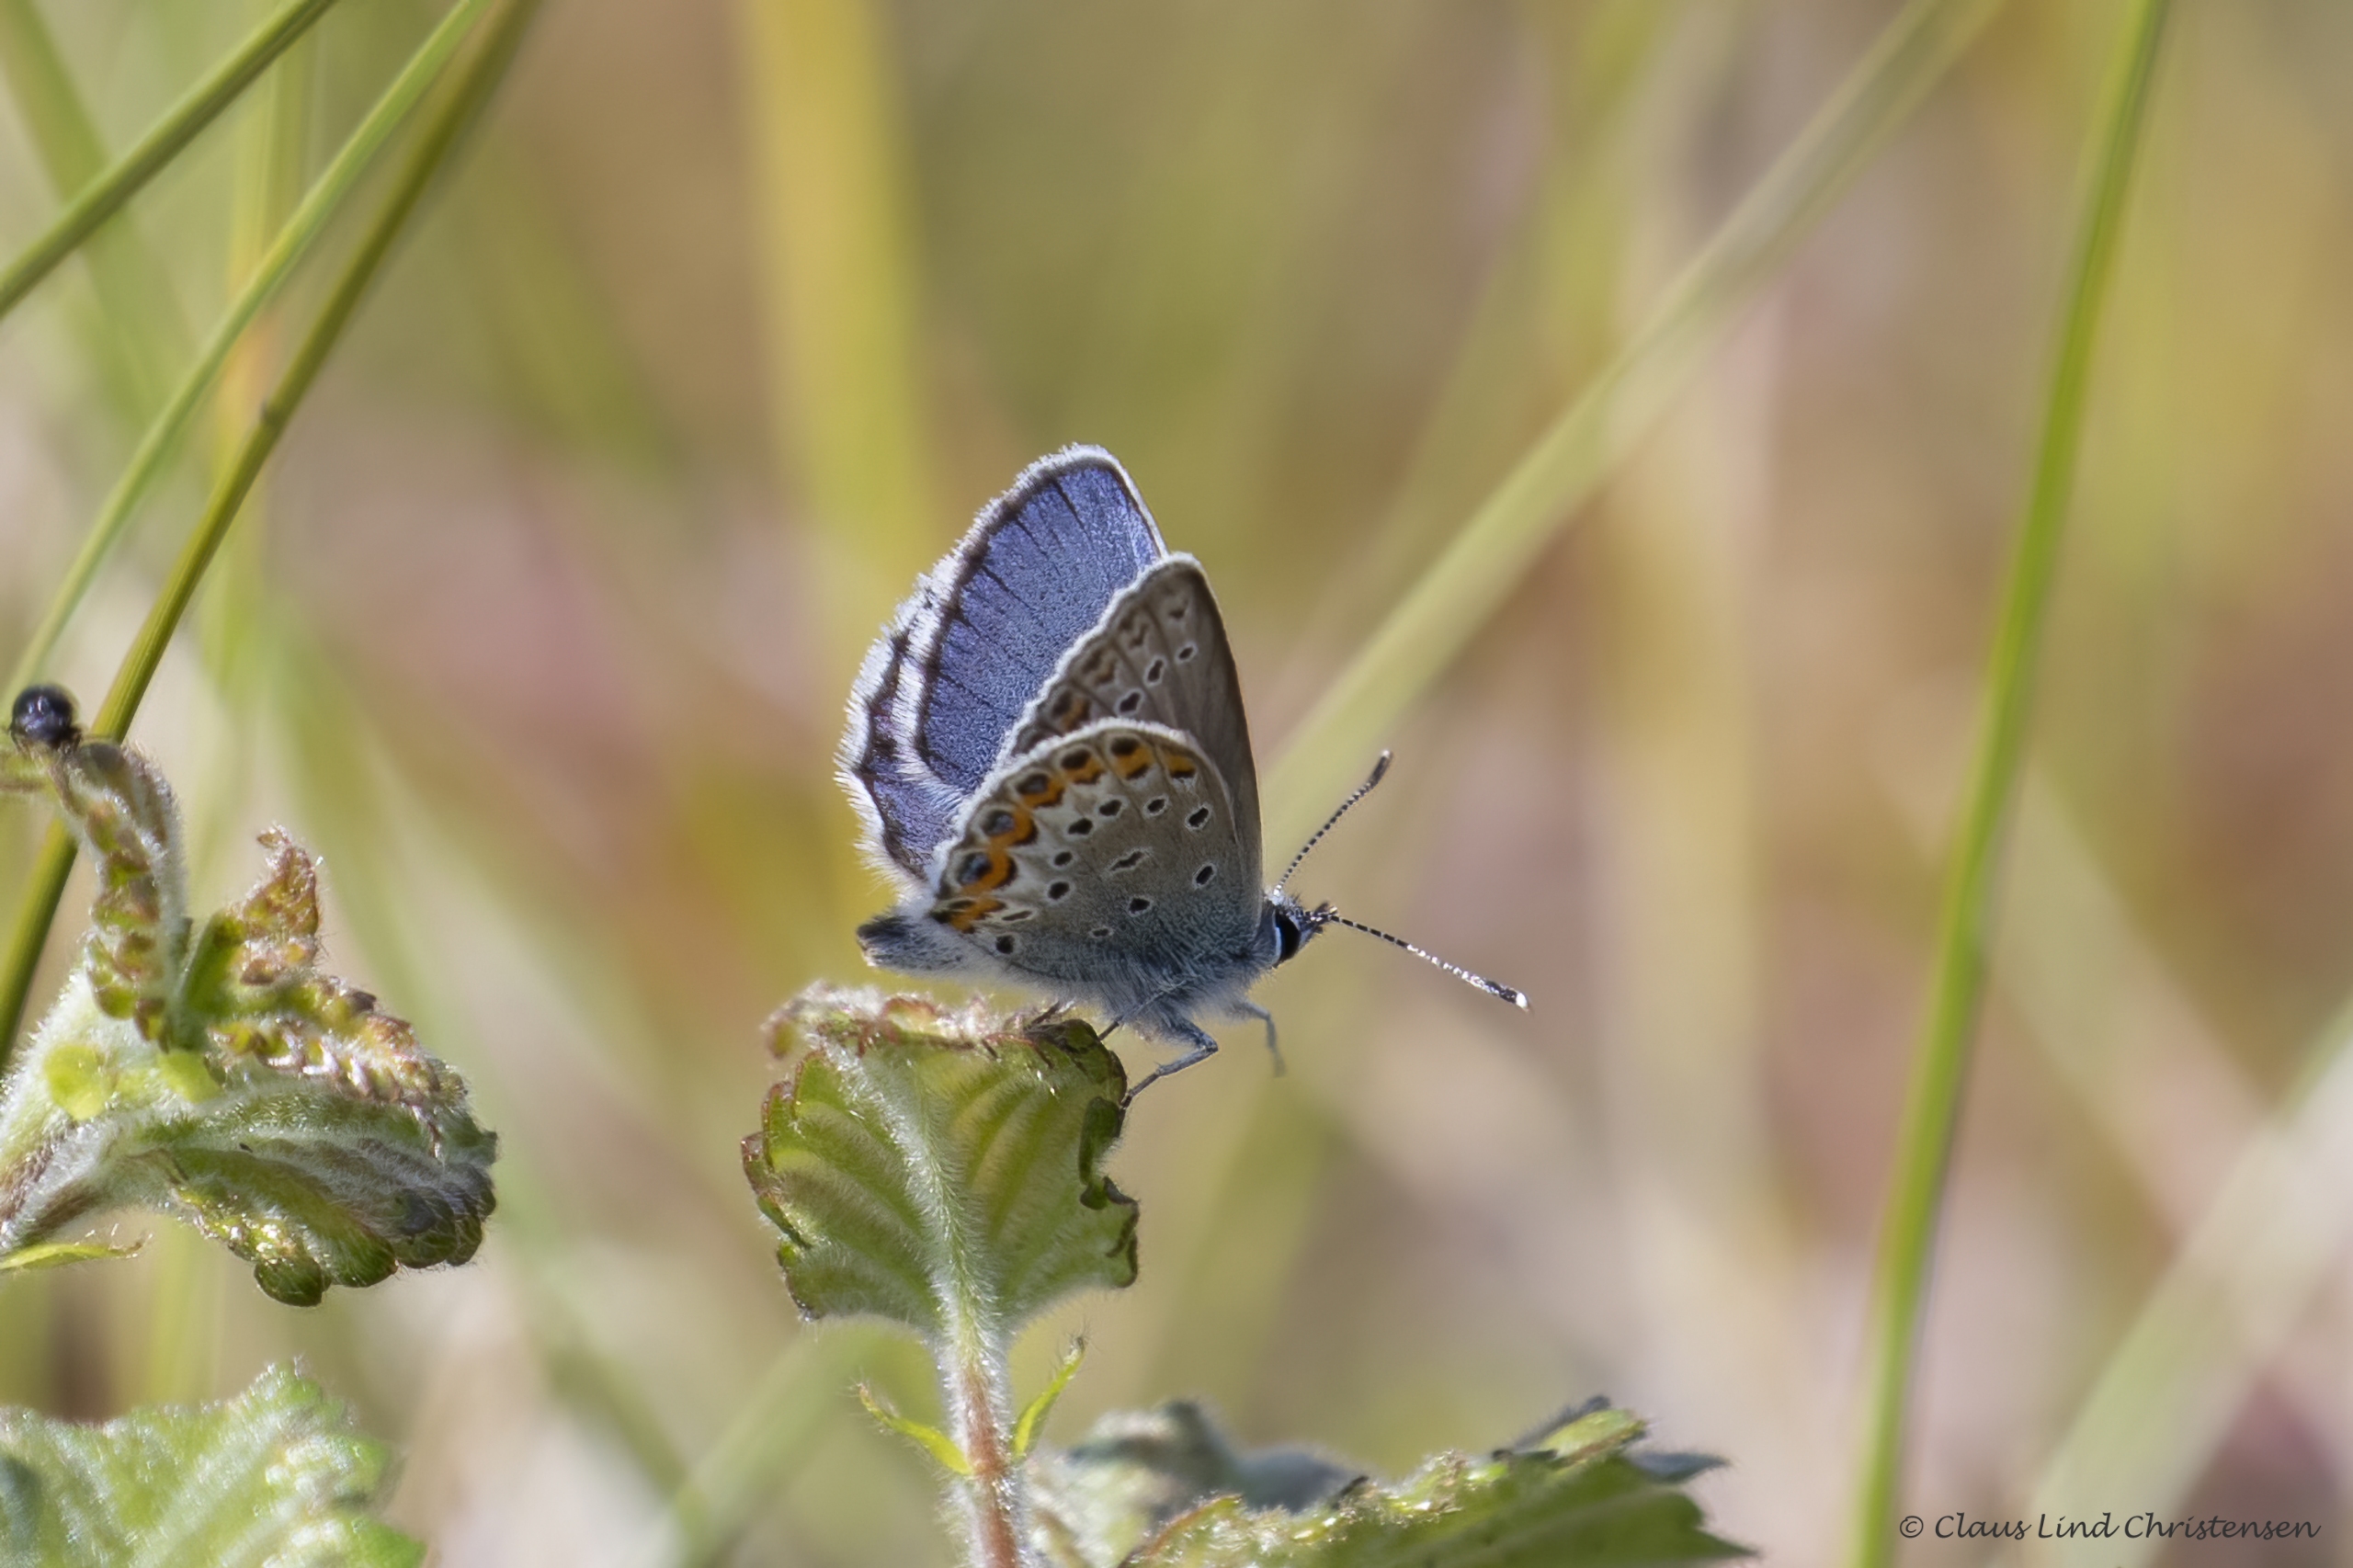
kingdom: Animalia
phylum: Arthropoda
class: Insecta
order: Lepidoptera
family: Lycaenidae
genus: Lycaeides
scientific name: Lycaeides idas
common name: Foranderlig blåfugl
